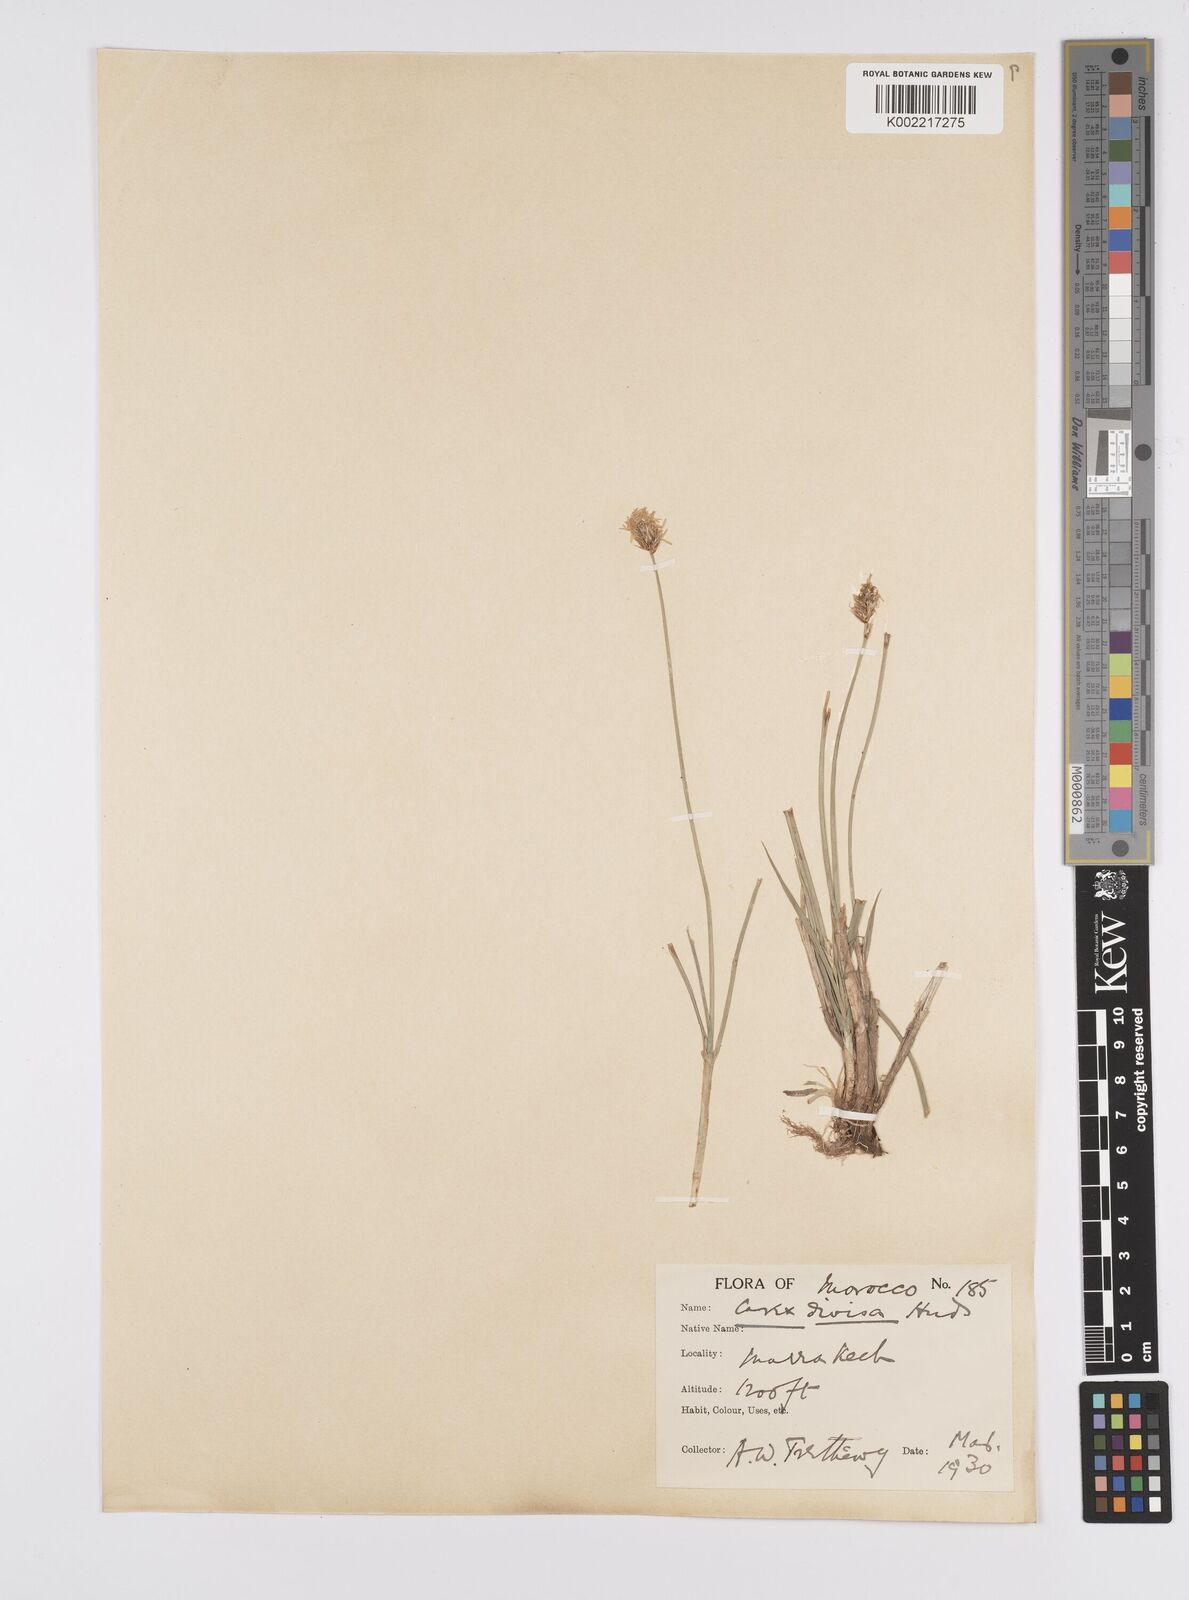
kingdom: Plantae
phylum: Tracheophyta
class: Liliopsida
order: Poales
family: Cyperaceae
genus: Carex
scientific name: Carex divisa
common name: Divided sedge
